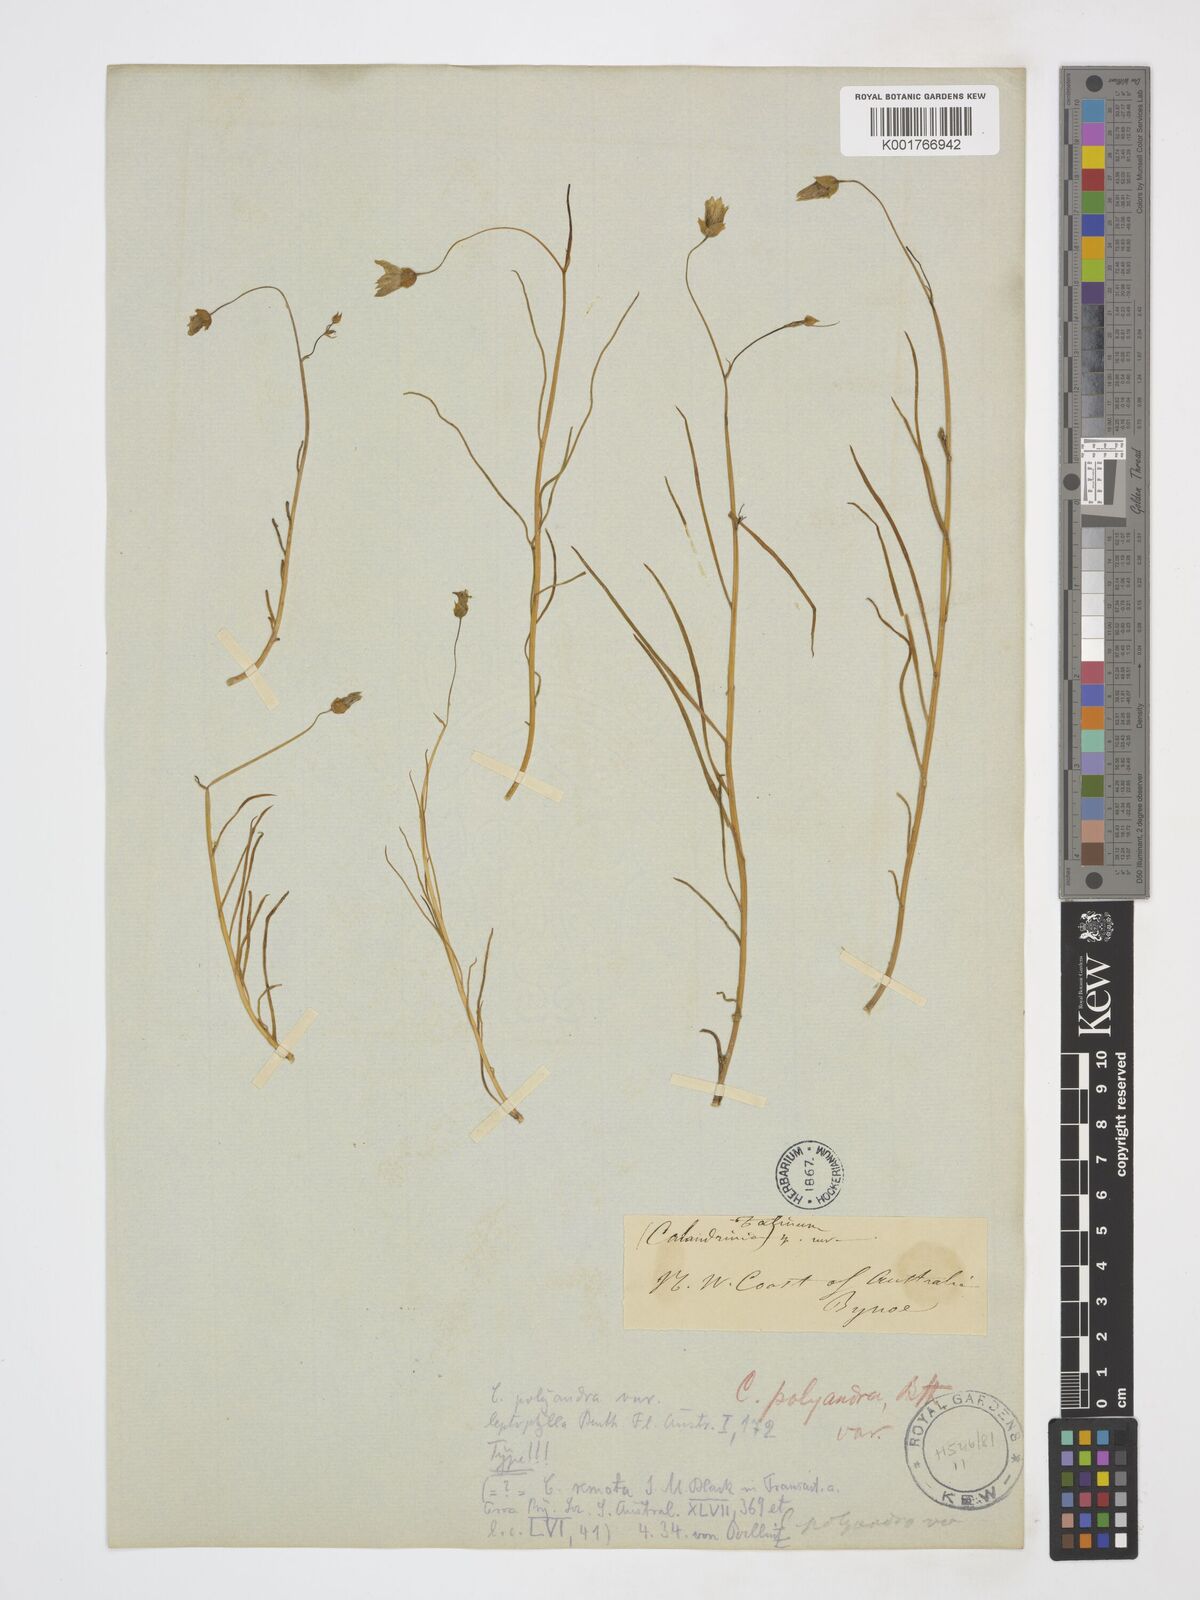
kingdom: Plantae
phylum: Tracheophyta
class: Magnoliopsida
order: Caryophyllales
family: Montiaceae
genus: Rumicastrum
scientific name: Rumicastrum strophiolatum
